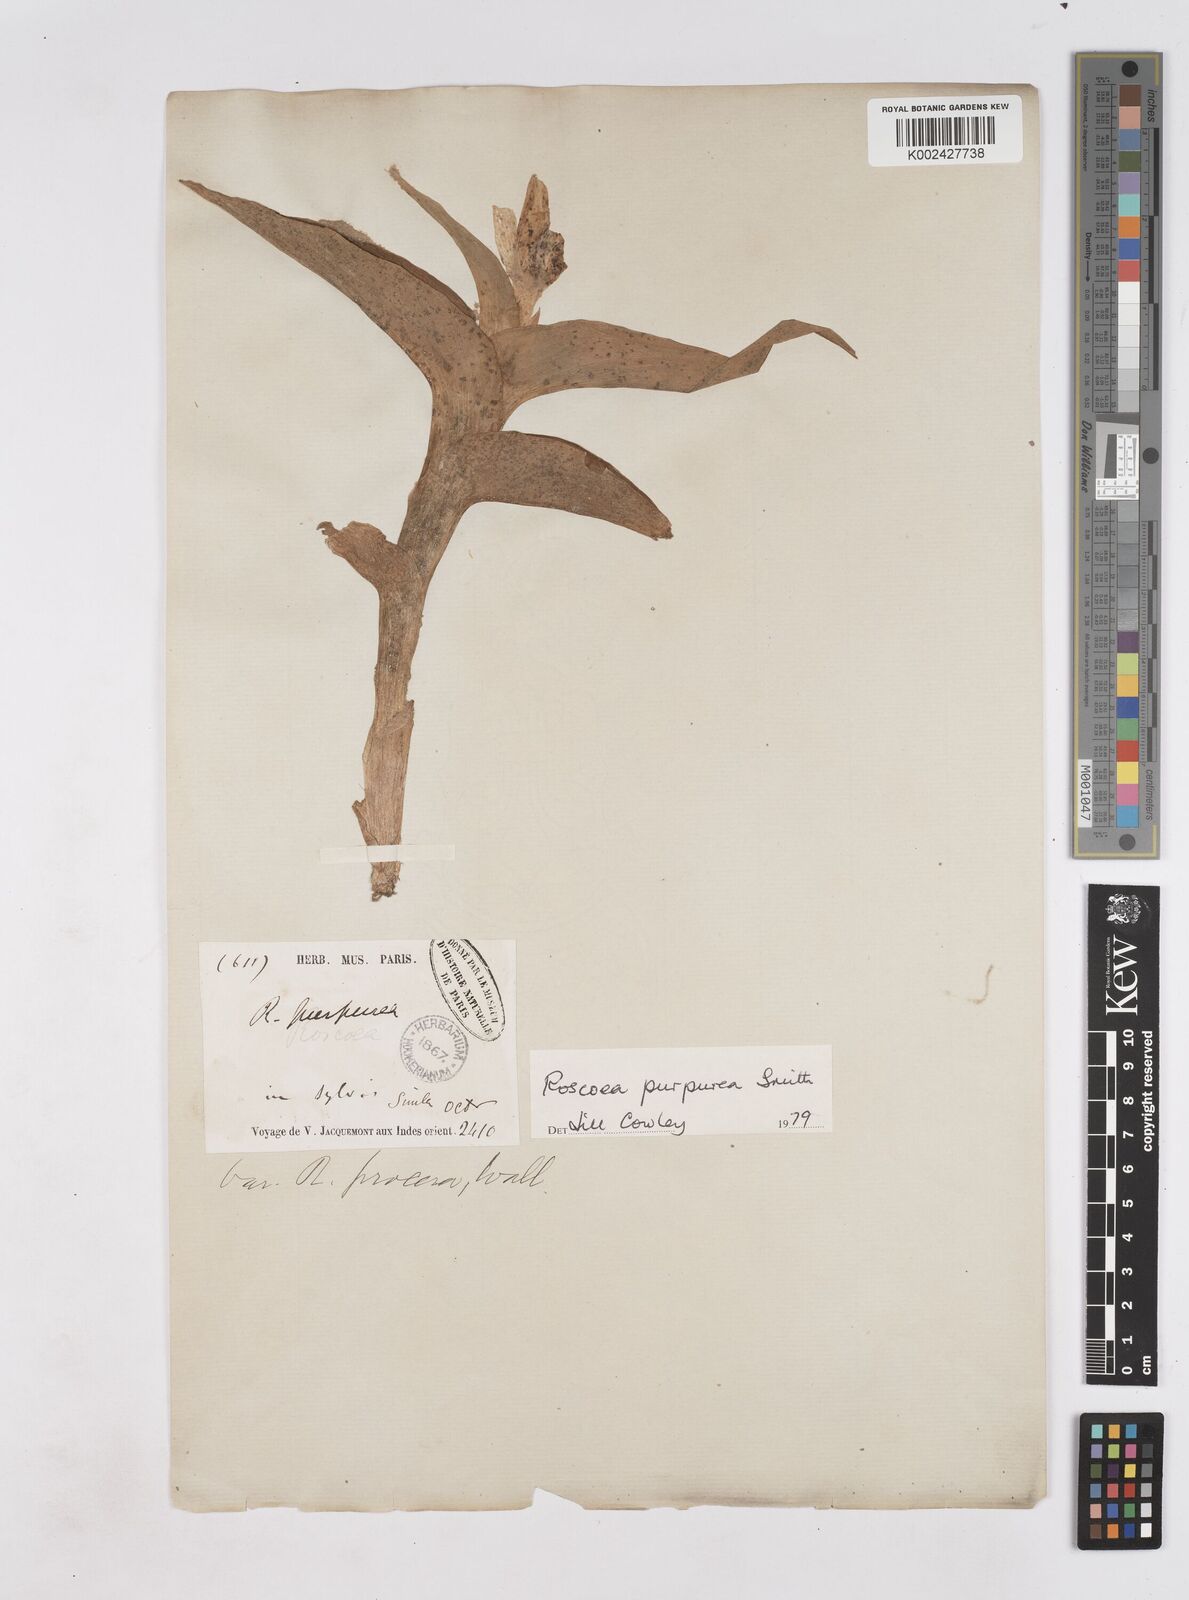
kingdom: Plantae
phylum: Tracheophyta
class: Liliopsida
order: Zingiberales
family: Zingiberaceae
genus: Roscoea
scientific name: Roscoea purpurea
